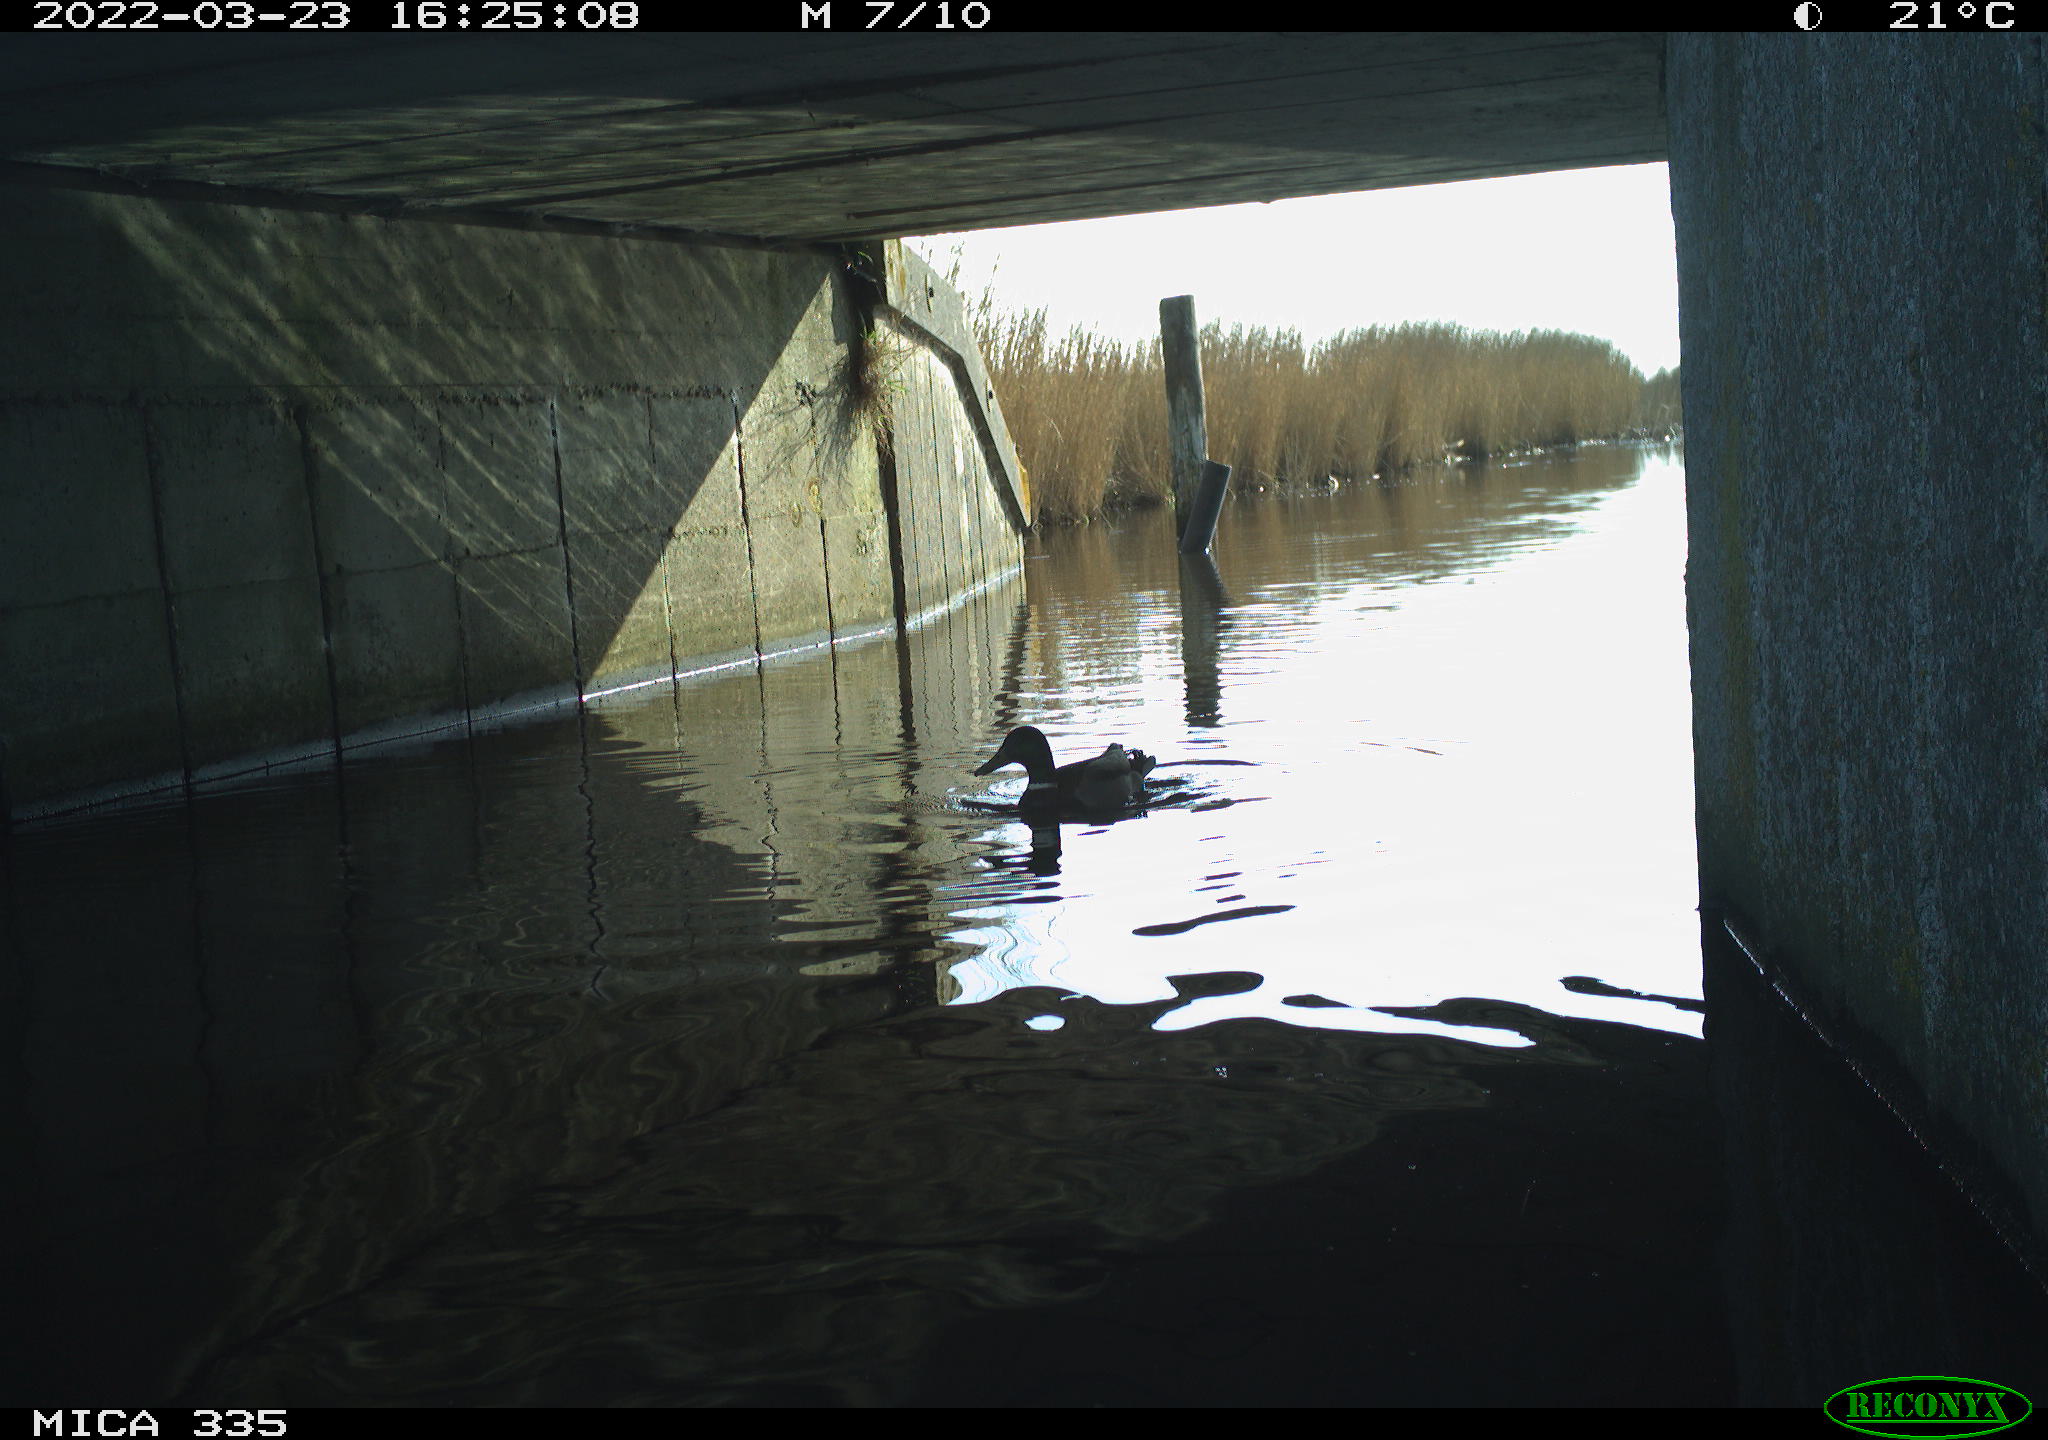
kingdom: Animalia
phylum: Chordata
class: Aves
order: Anseriformes
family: Anatidae
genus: Anas
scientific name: Anas platyrhynchos
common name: Mallard
